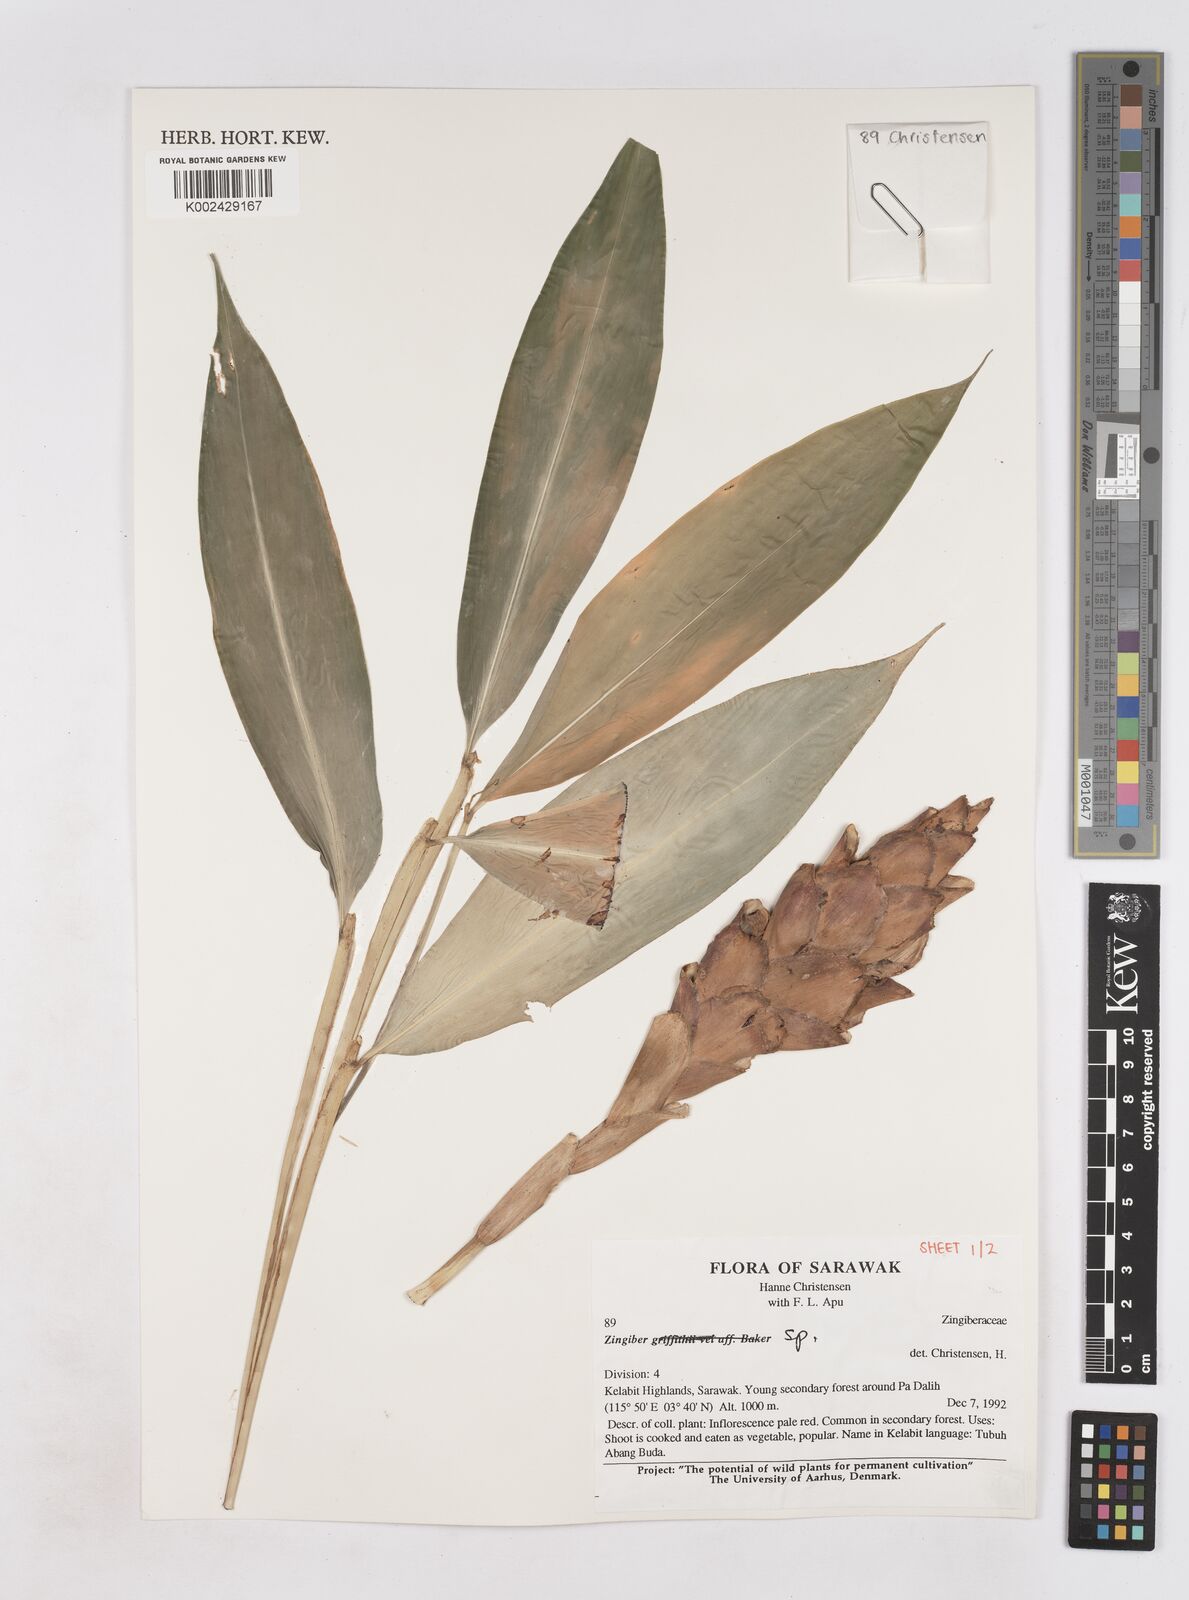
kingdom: Plantae
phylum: Tracheophyta
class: Liliopsida
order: Zingiberales
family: Zingiberaceae
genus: Zingiber
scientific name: Zingiber
